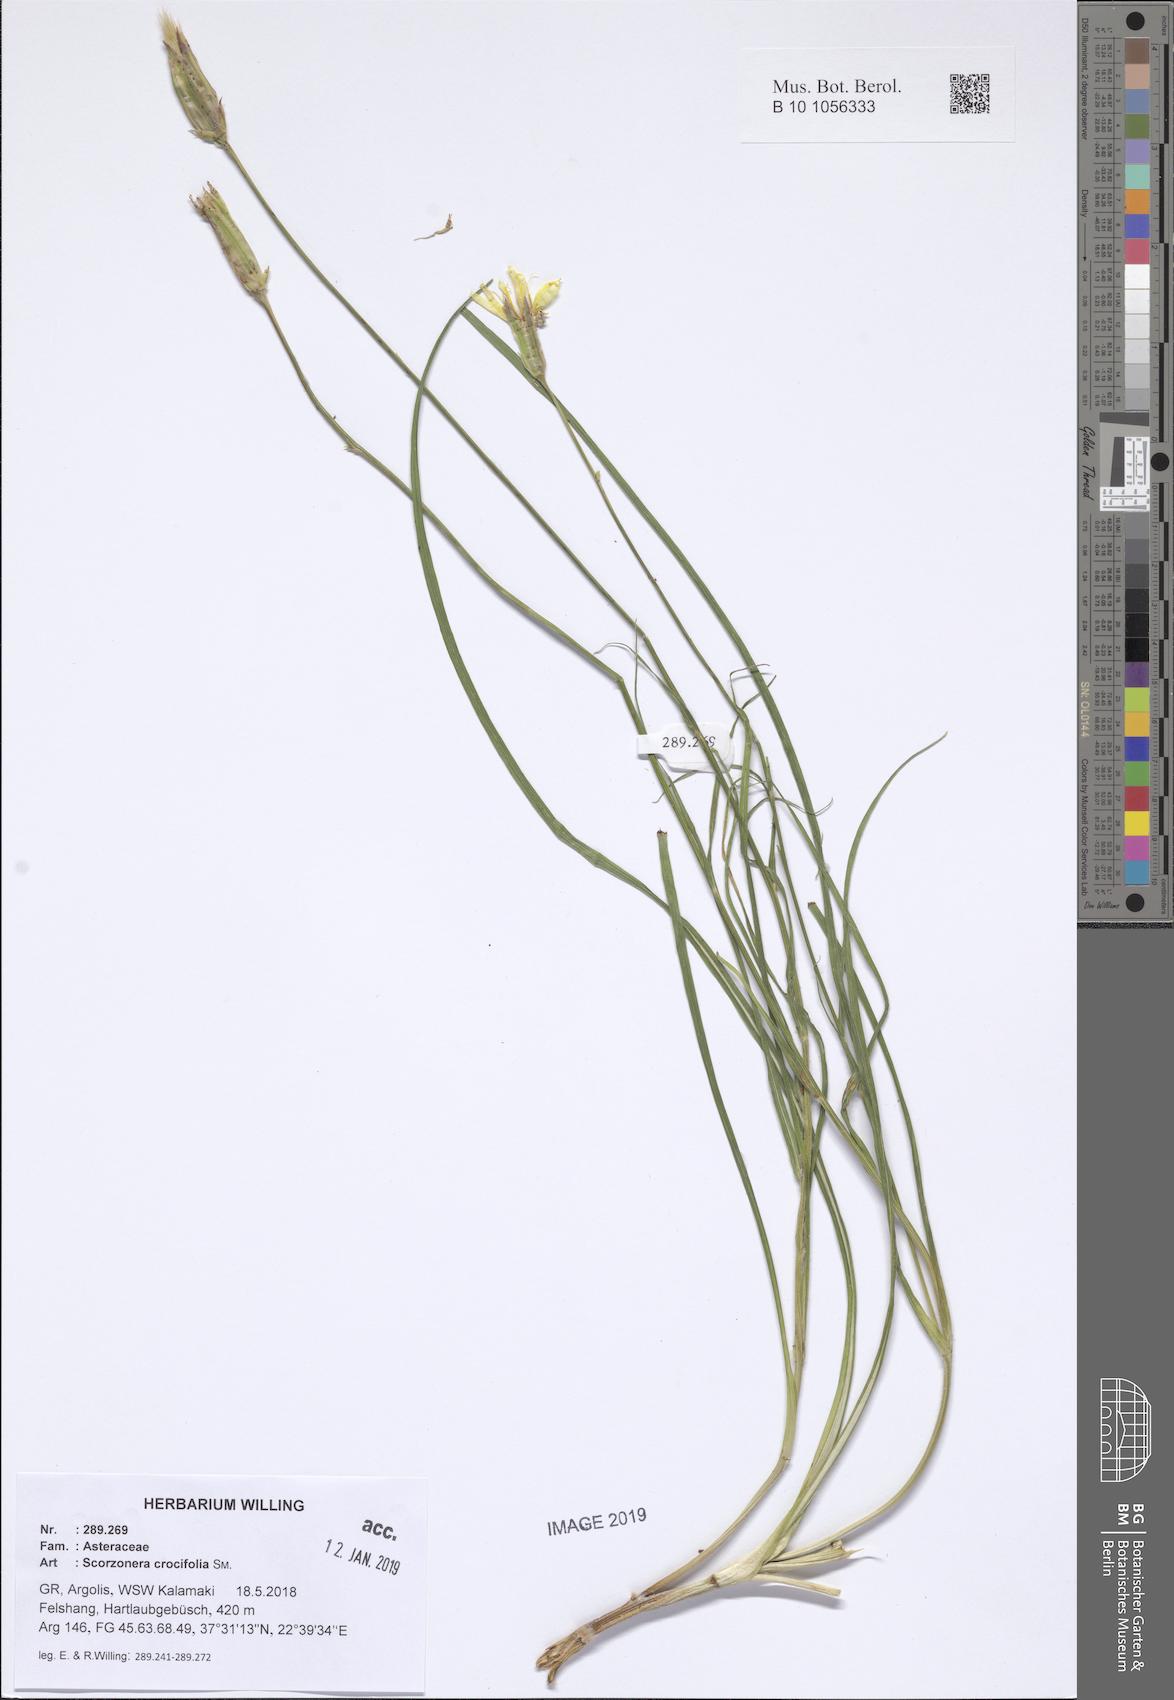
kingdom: Plantae
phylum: Tracheophyta
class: Magnoliopsida
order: Asterales
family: Asteraceae
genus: Pseudopodospermum
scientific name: Pseudopodospermum crocifolium
